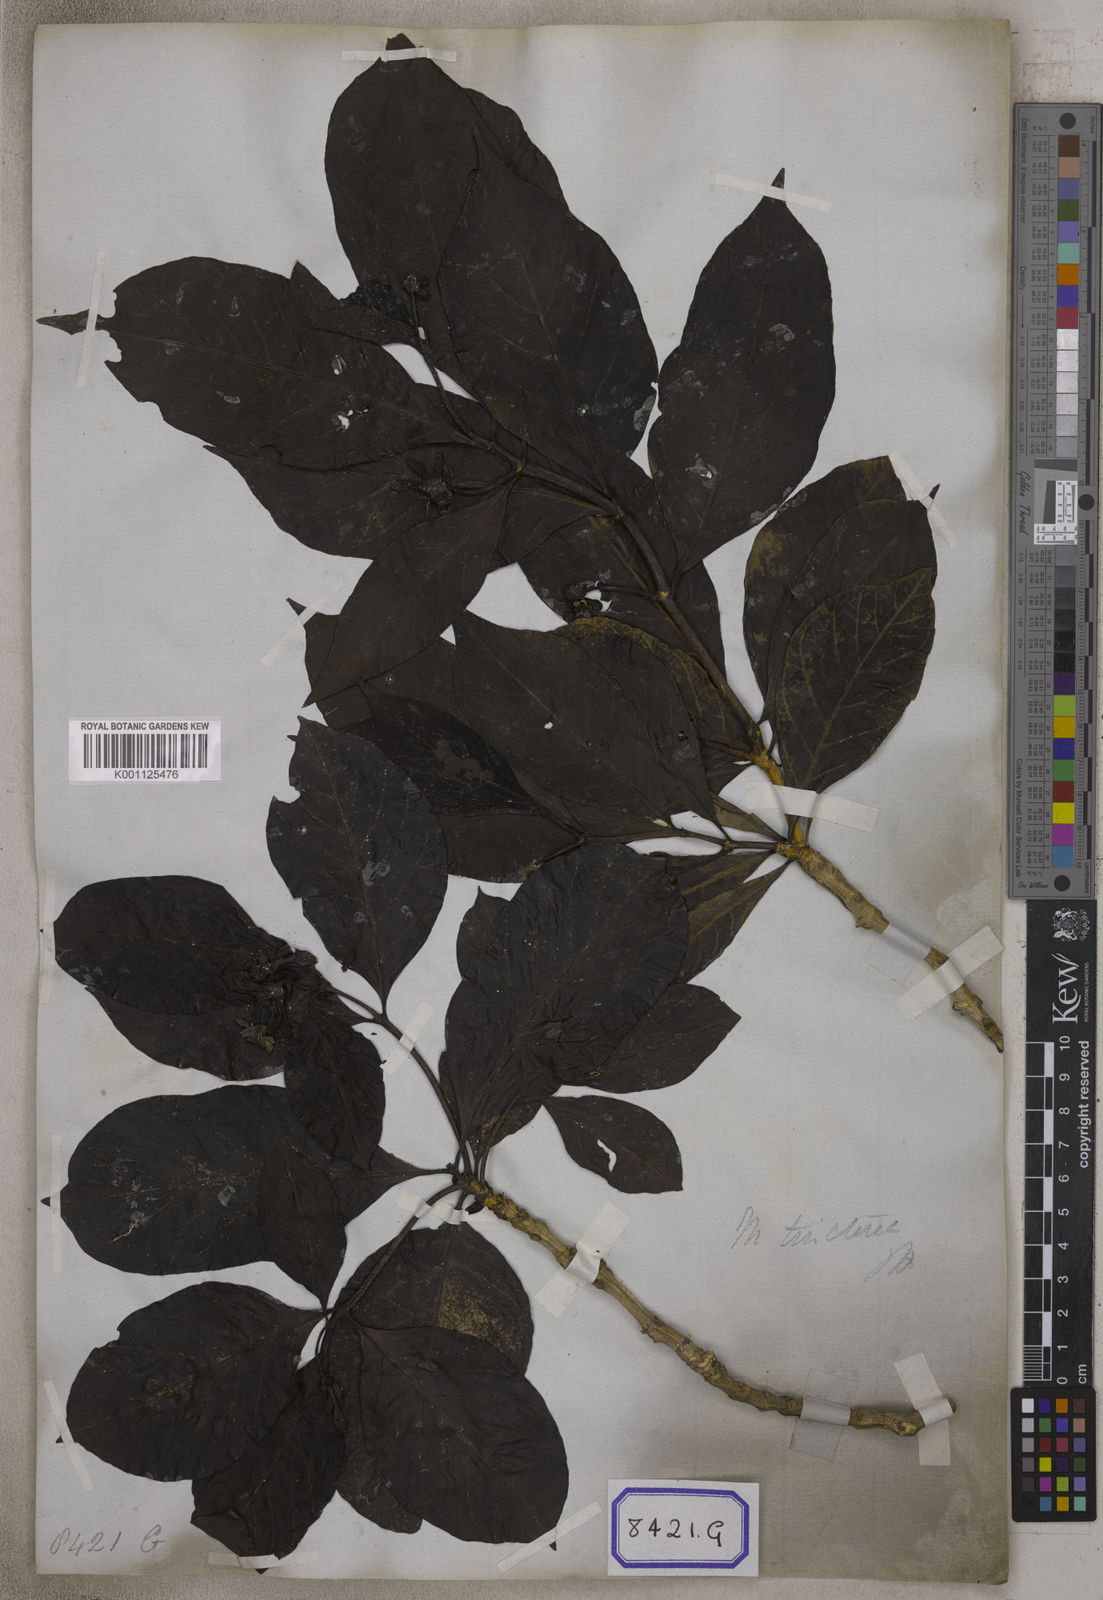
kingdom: Plantae
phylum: Tracheophyta
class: Magnoliopsida
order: Gentianales
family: Rubiaceae
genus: Morinda
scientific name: Morinda coreia
